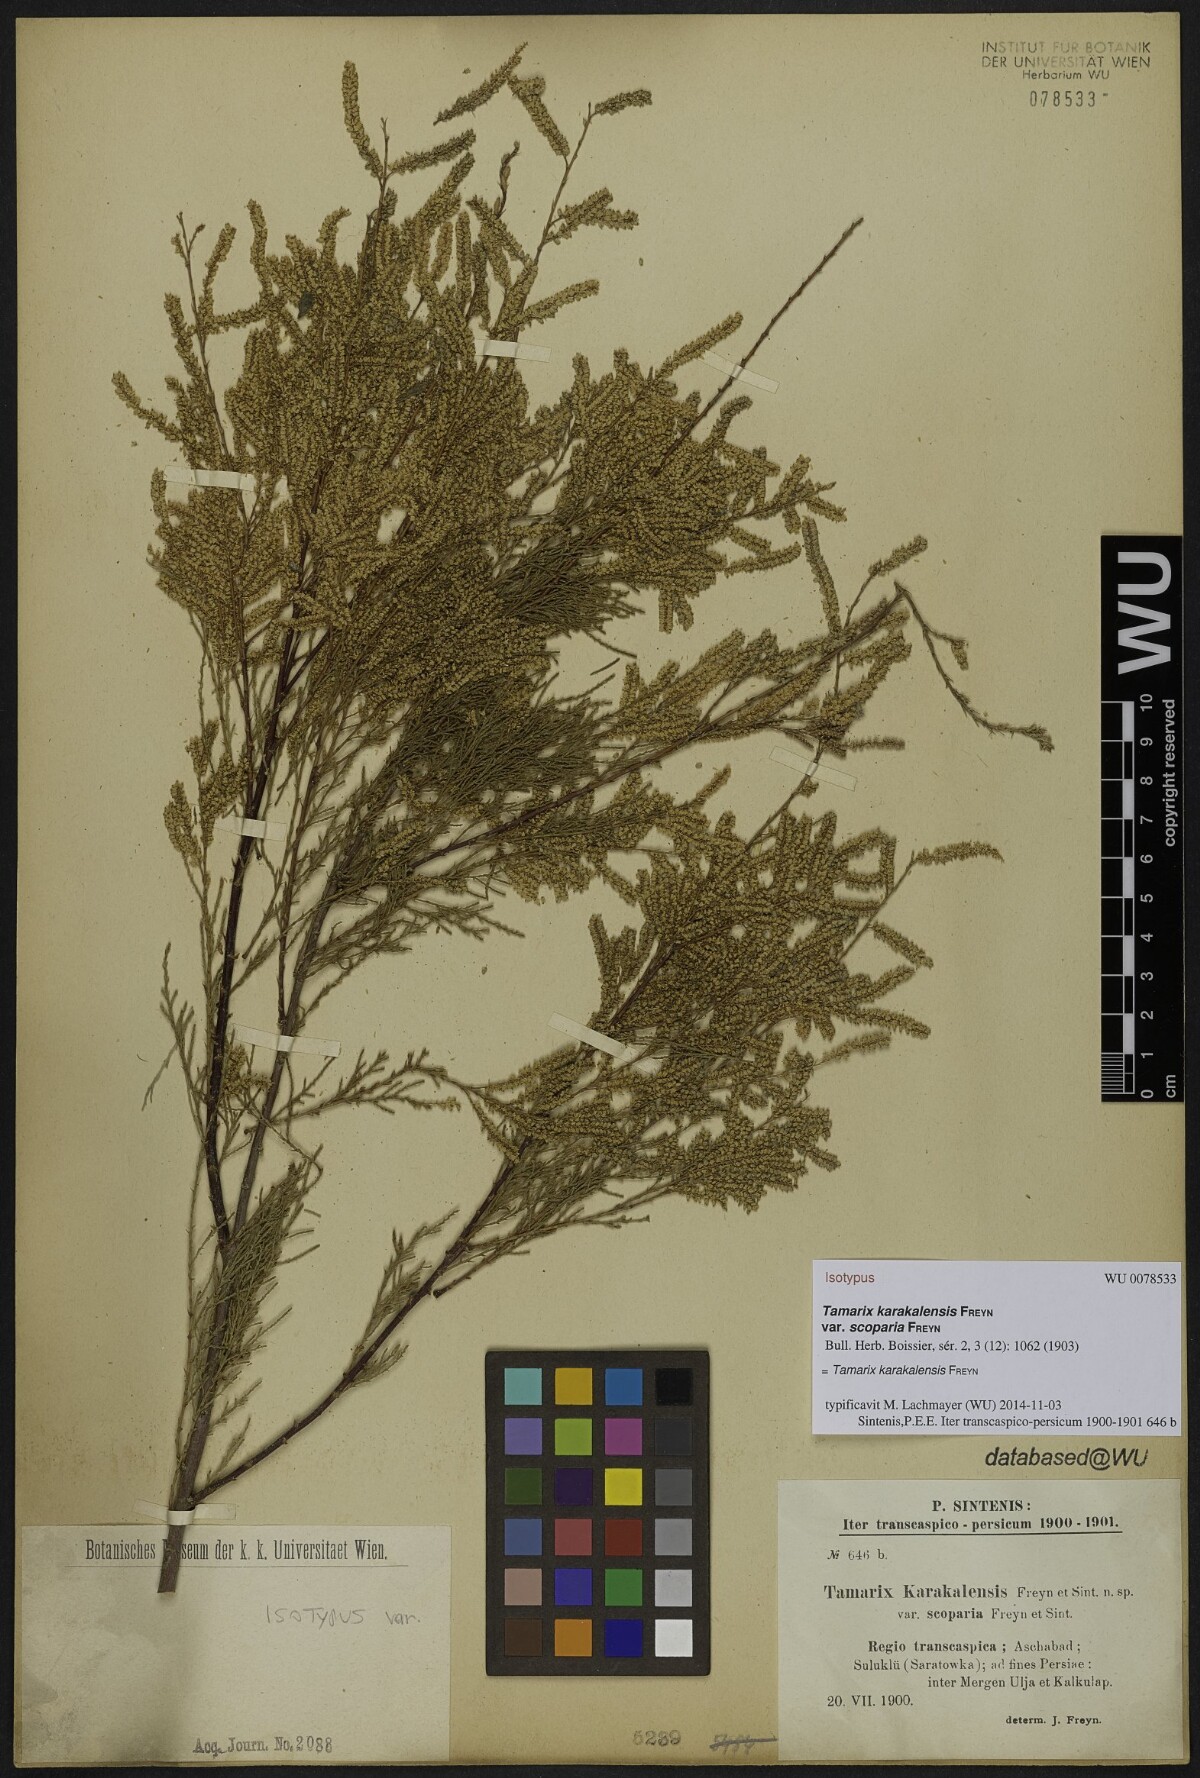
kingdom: Plantae
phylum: Tracheophyta
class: Magnoliopsida
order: Caryophyllales
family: Tamaricaceae
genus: Tamarix
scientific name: Tamarix florida
